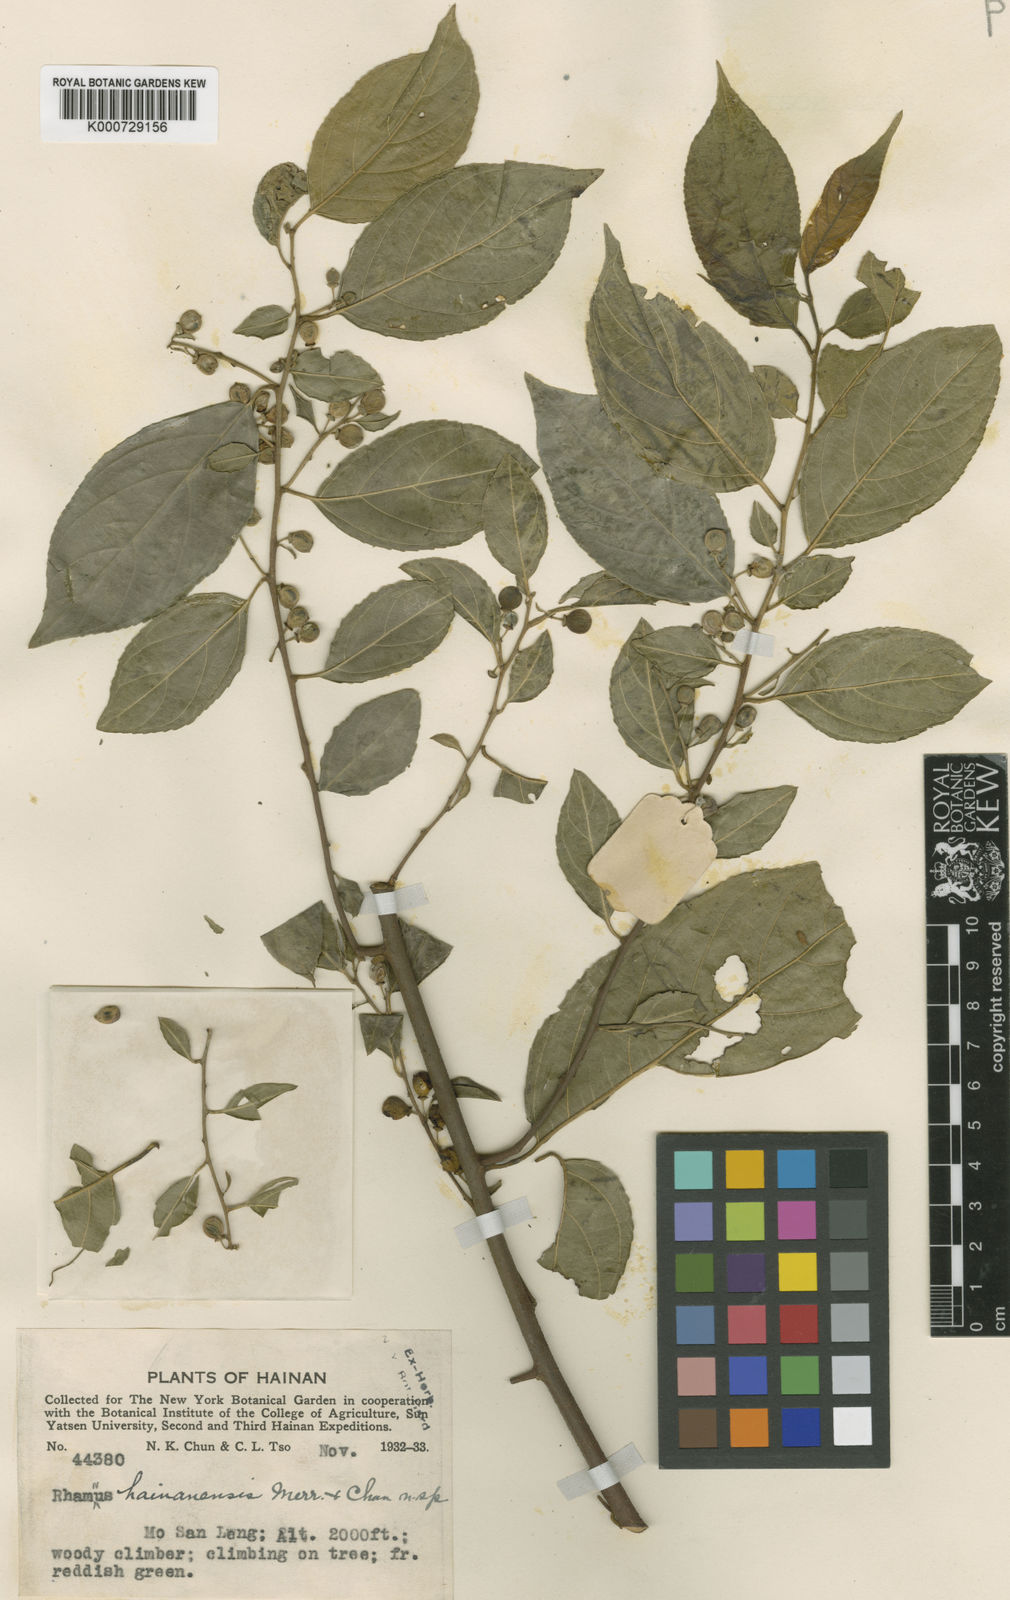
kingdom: Plantae
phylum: Tracheophyta
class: Magnoliopsida
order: Rosales
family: Rhamnaceae
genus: Rhamnus
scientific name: Rhamnus hainanensis
